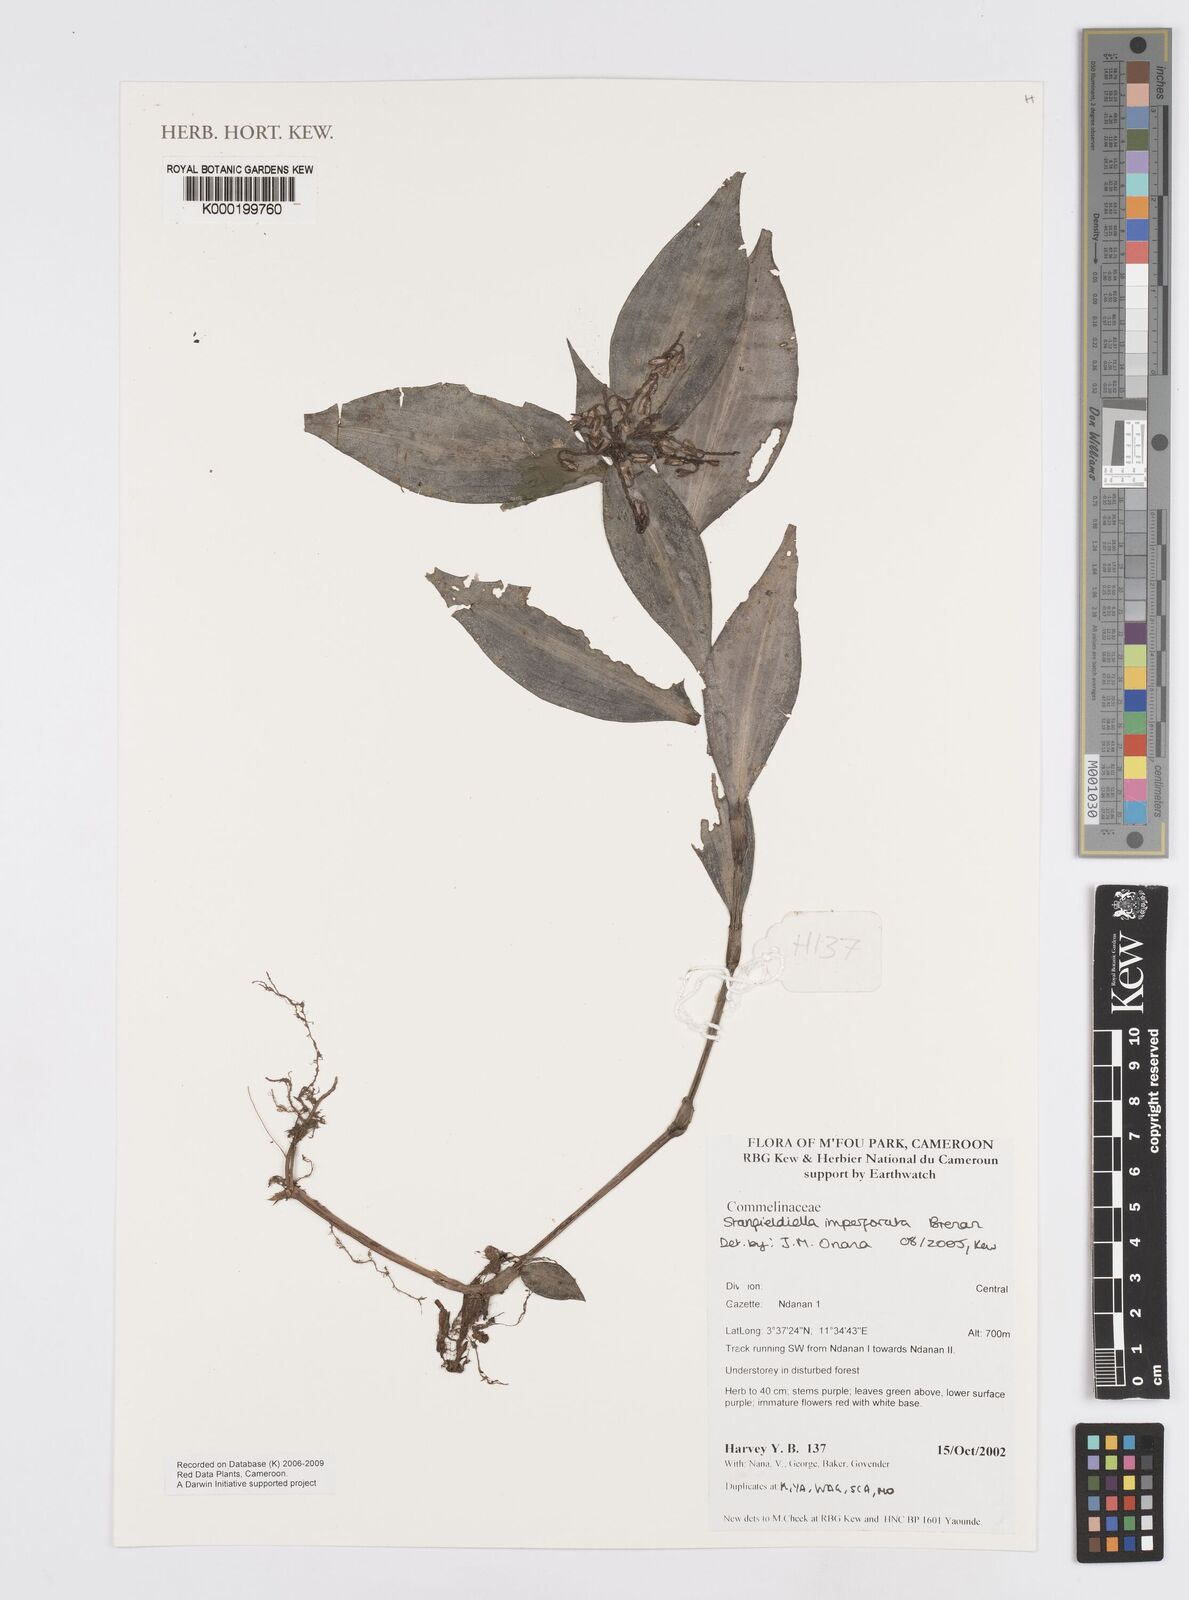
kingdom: Plantae
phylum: Tracheophyta
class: Liliopsida
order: Commelinales
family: Commelinaceae
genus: Stanfieldiella
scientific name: Stanfieldiella imperforata
